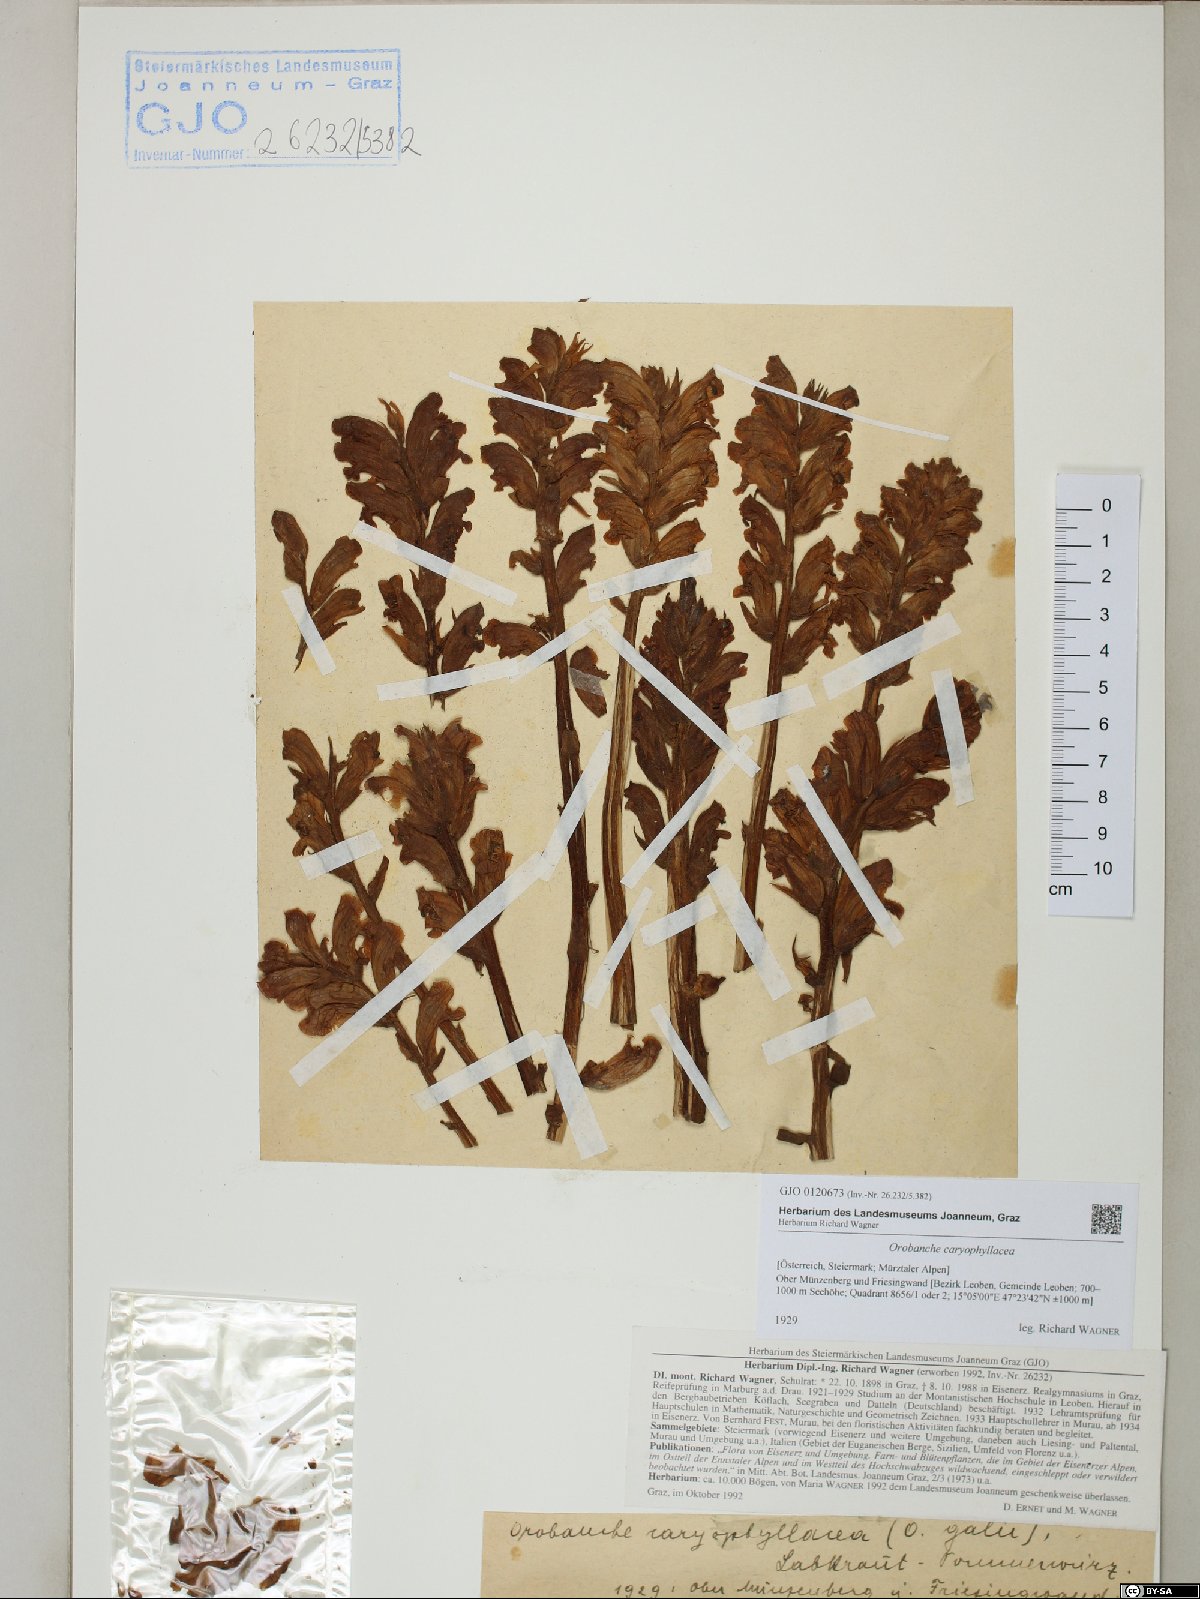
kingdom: Plantae
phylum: Tracheophyta
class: Magnoliopsida
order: Lamiales
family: Orobanchaceae
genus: Orobanche
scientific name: Orobanche caryophyllacea
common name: Bedstraw broomrape
